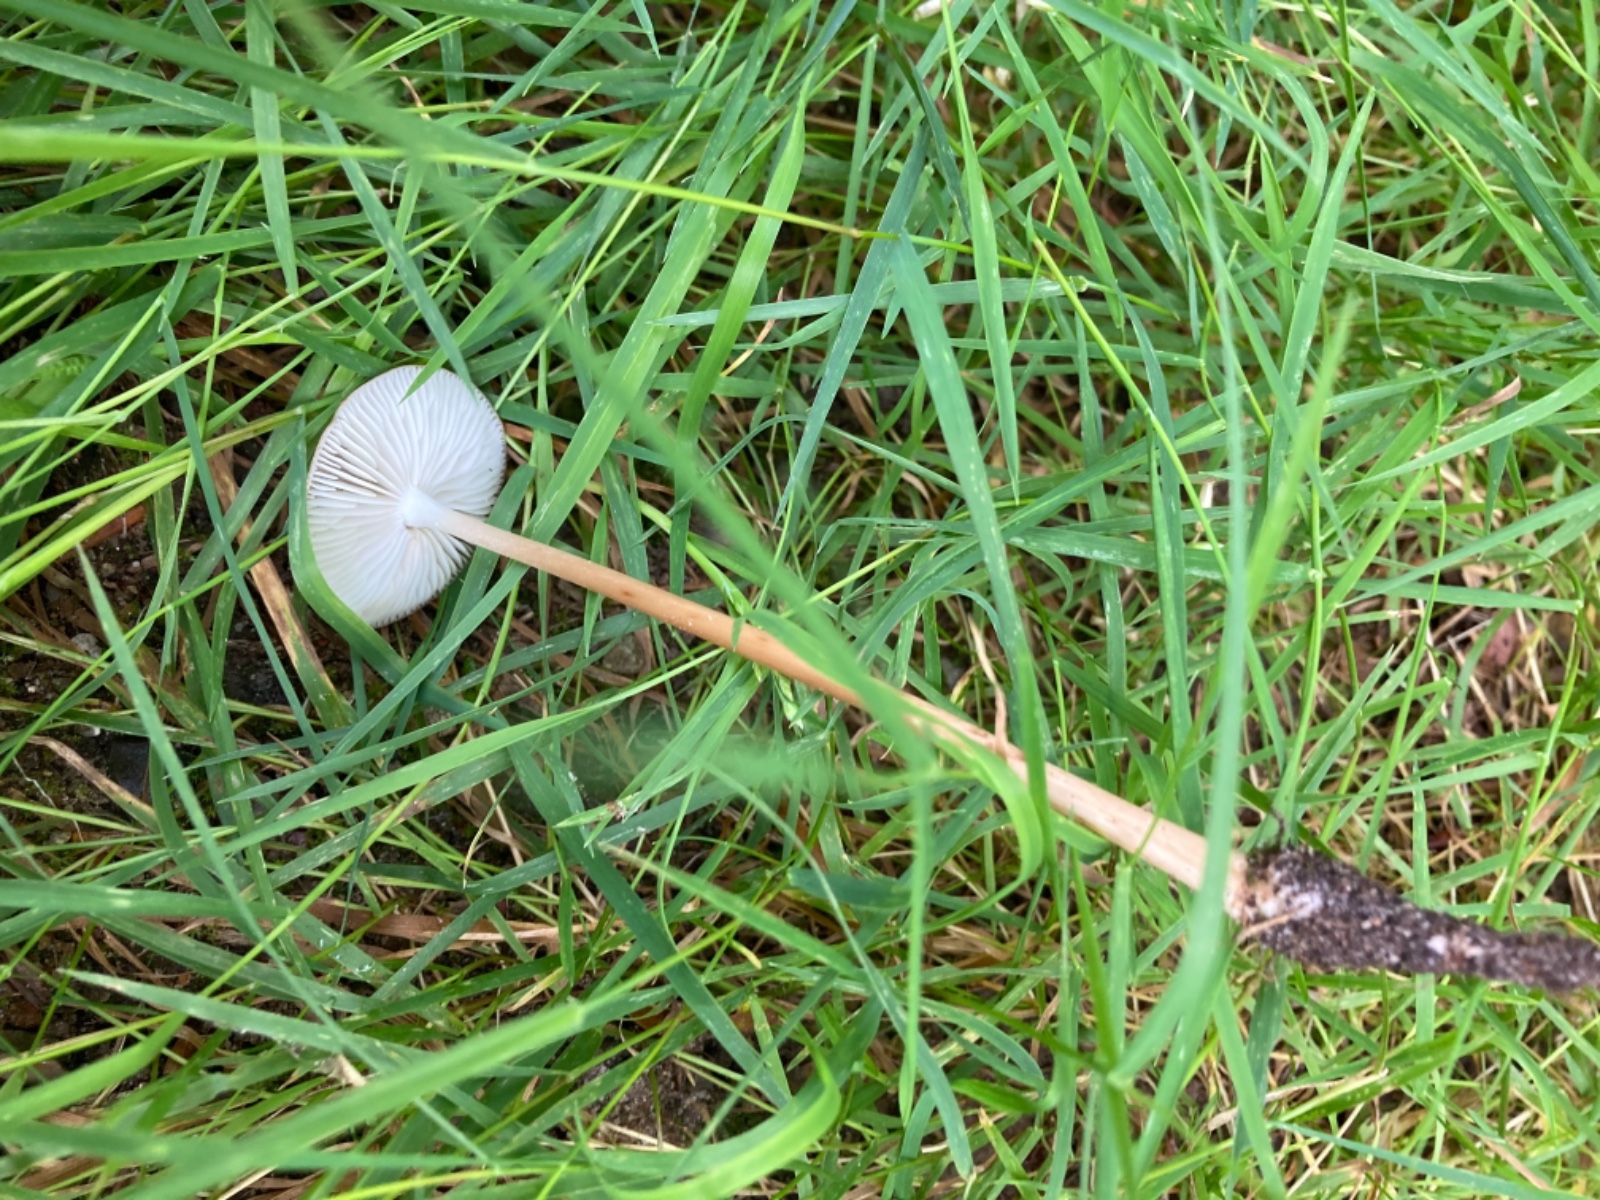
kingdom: Fungi
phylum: Basidiomycota
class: Agaricomycetes
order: Agaricales
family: Physalacriaceae
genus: Hymenopellis
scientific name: Hymenopellis radicata
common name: almindelig pælerodshat
